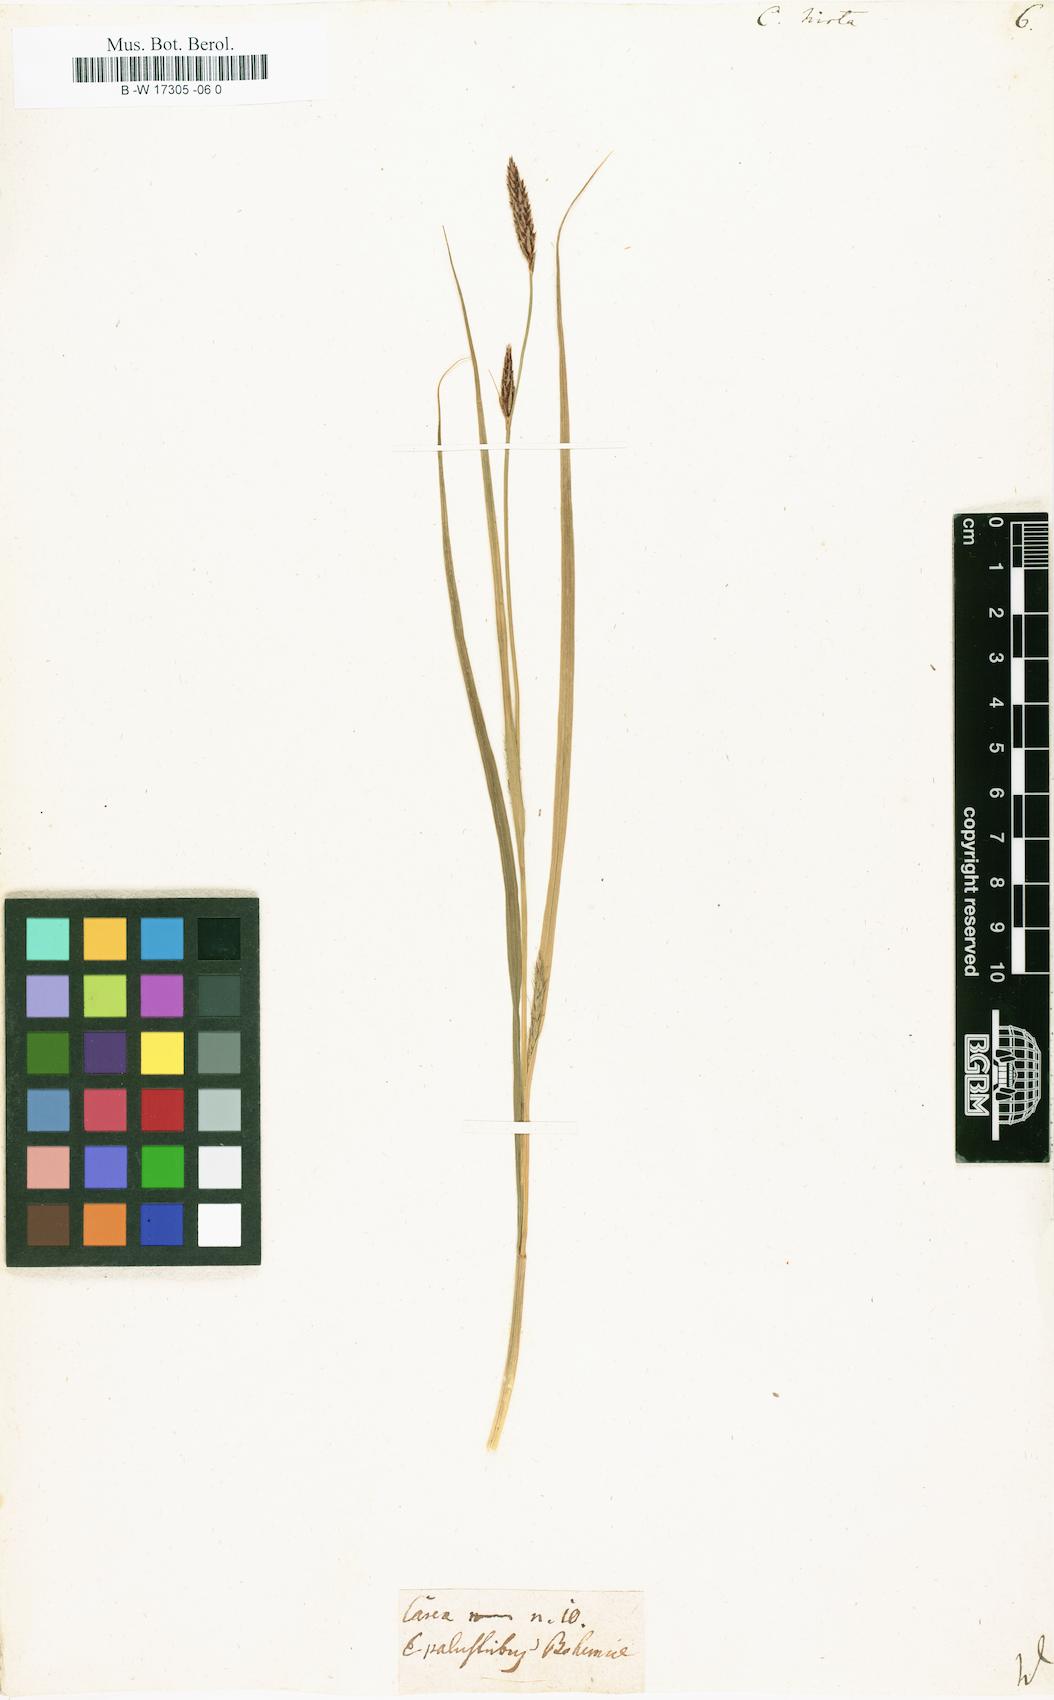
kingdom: Plantae
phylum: Tracheophyta
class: Liliopsida
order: Poales
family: Cyperaceae
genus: Carex
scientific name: Carex hirta
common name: Hairy sedge
